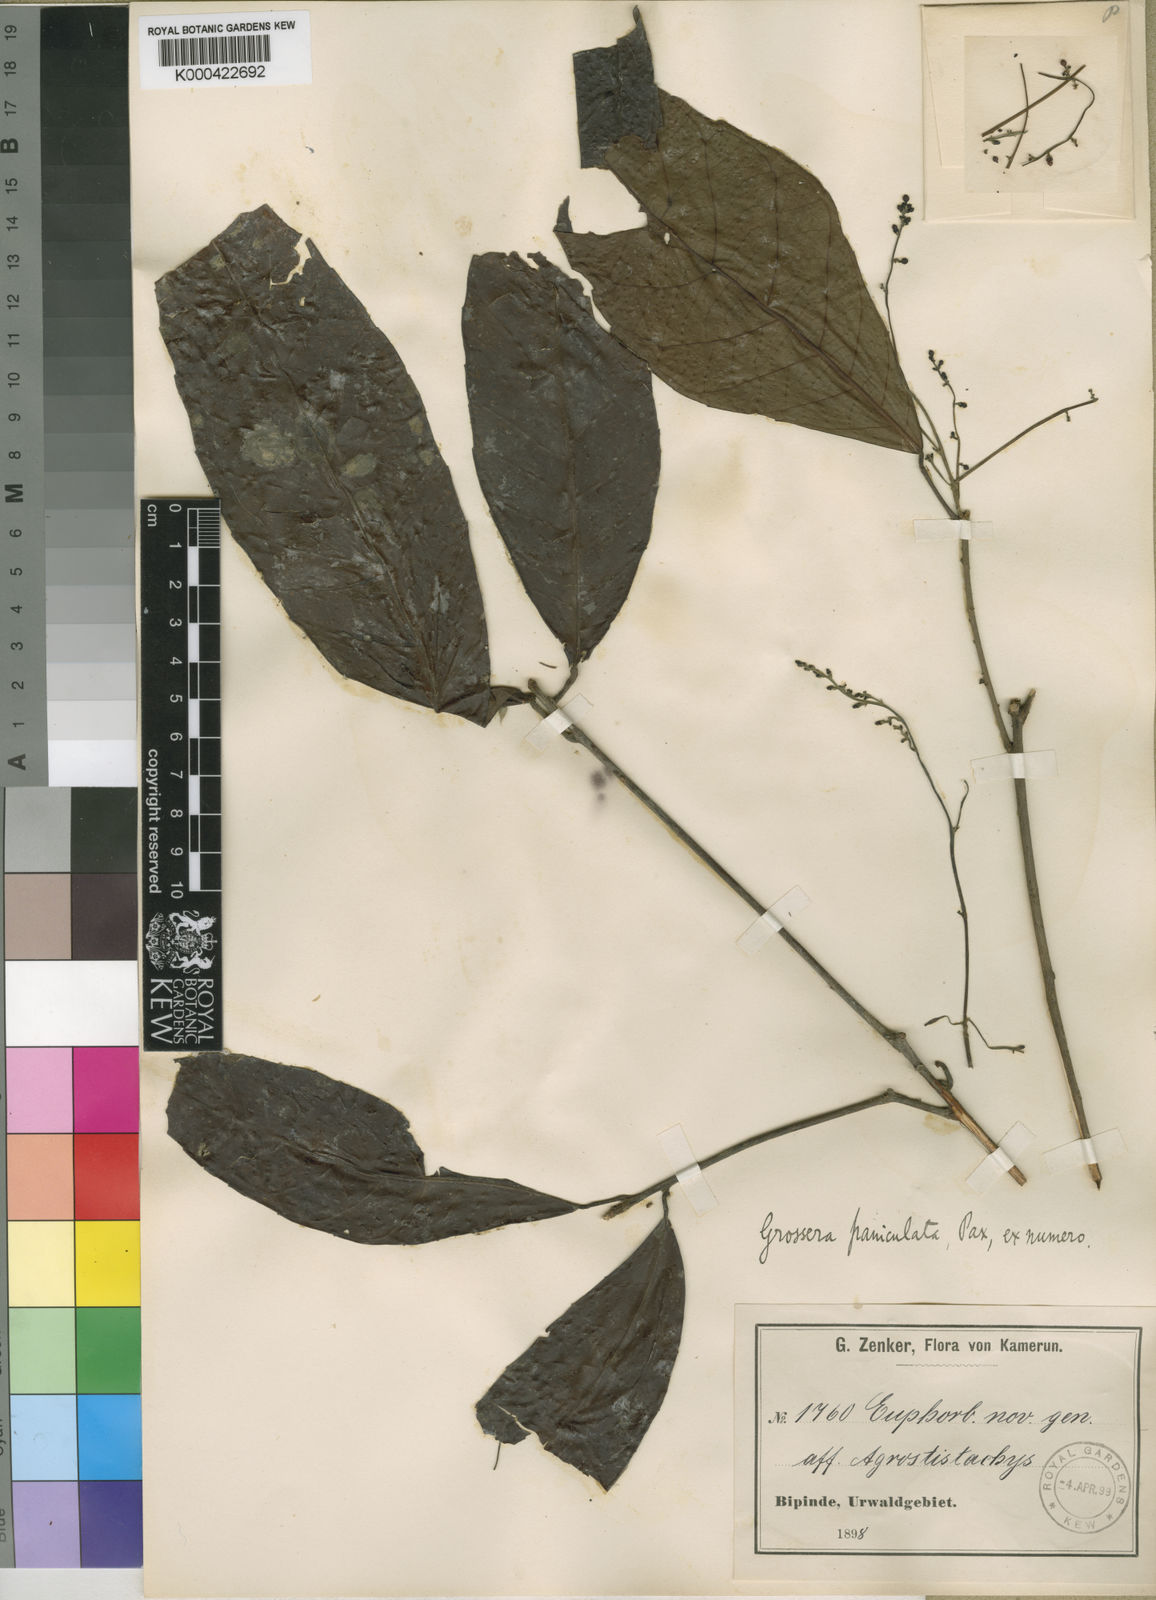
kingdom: Plantae
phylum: Tracheophyta
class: Magnoliopsida
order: Malpighiales
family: Euphorbiaceae
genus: Grossera
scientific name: Grossera paniculata
